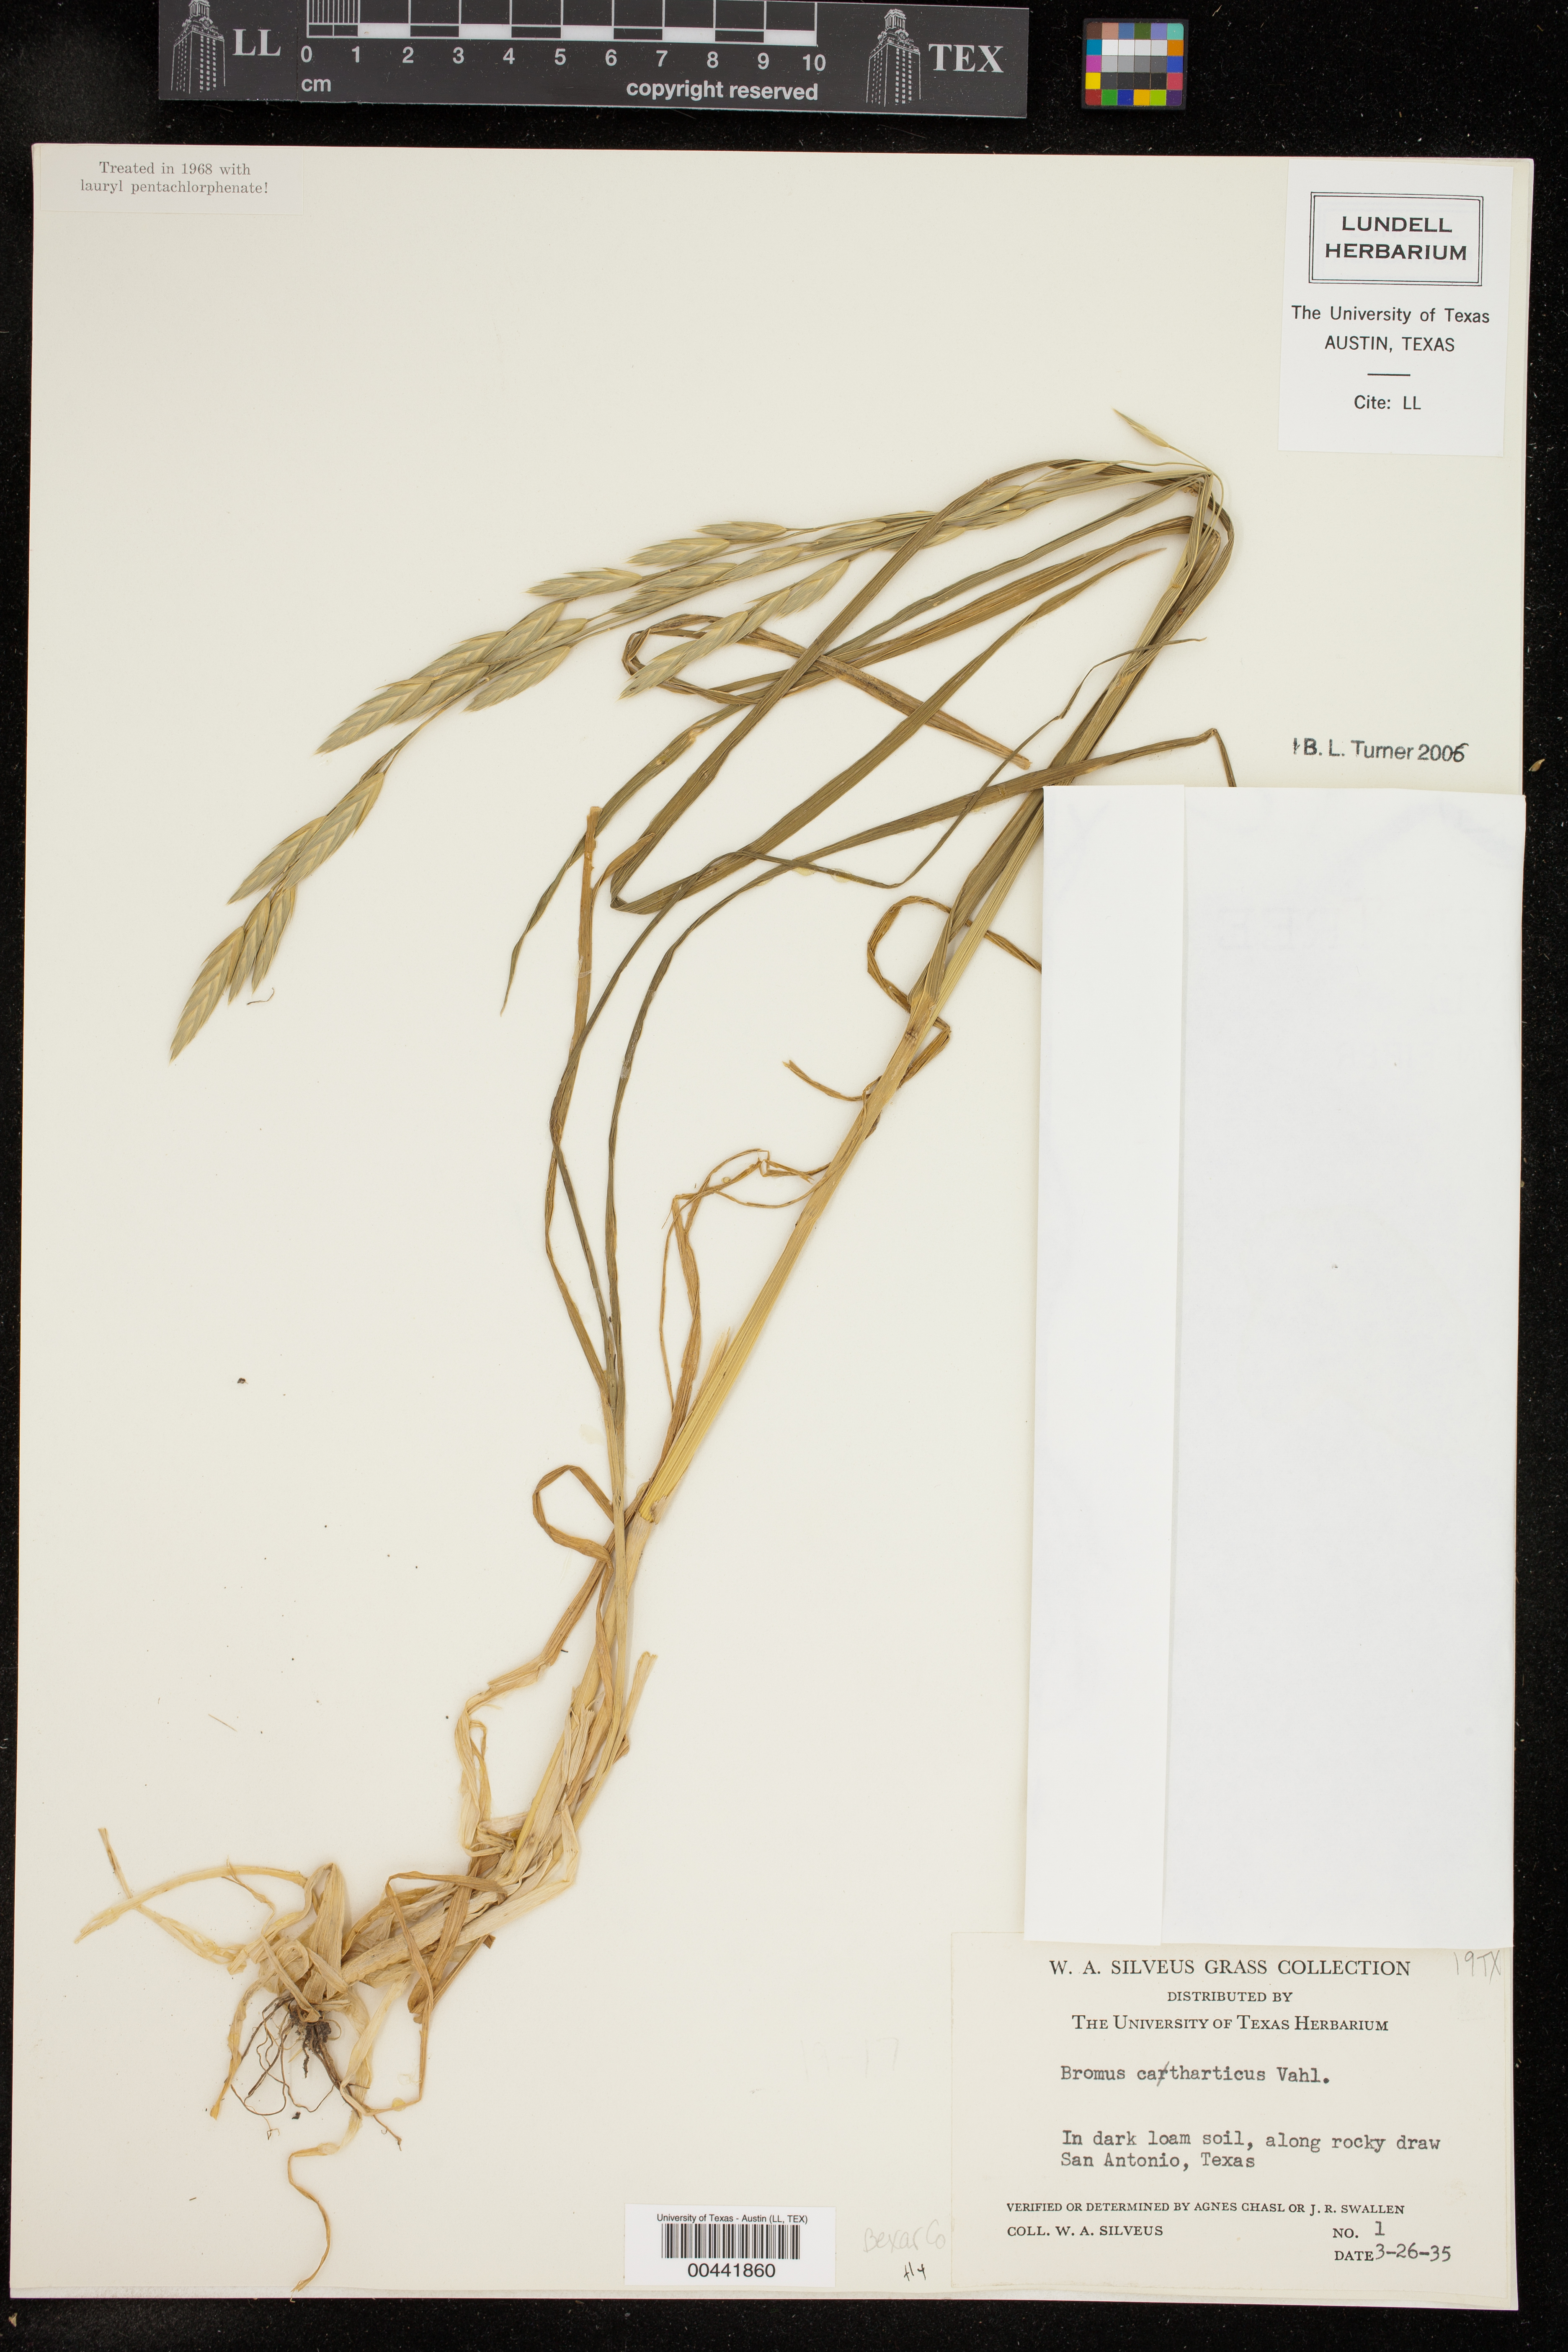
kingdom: Plantae
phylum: Tracheophyta
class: Liliopsida
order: Poales
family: Poaceae
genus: Bromus
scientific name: Bromus catharticus
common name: Rescuegrass
